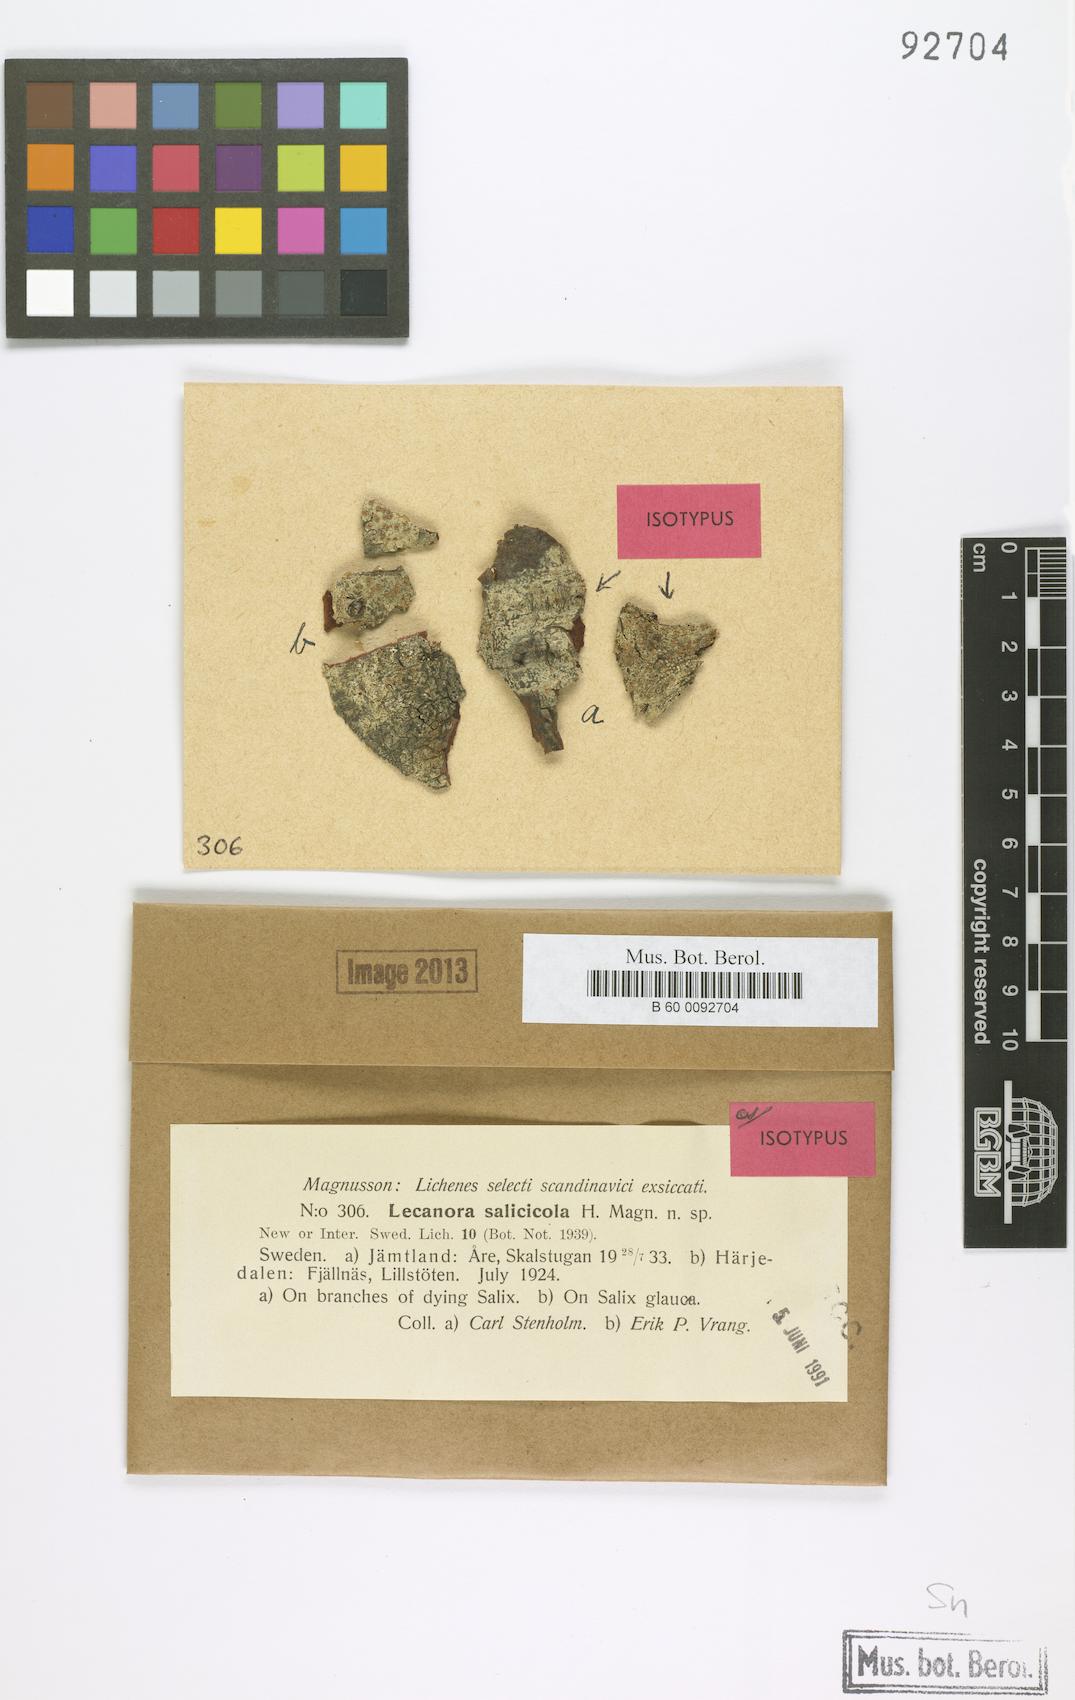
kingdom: Fungi
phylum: Ascomycota
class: Lecanoromycetes
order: Lecanorales
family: Lecanoraceae
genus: Lecanora
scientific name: Lecanora salicicola
